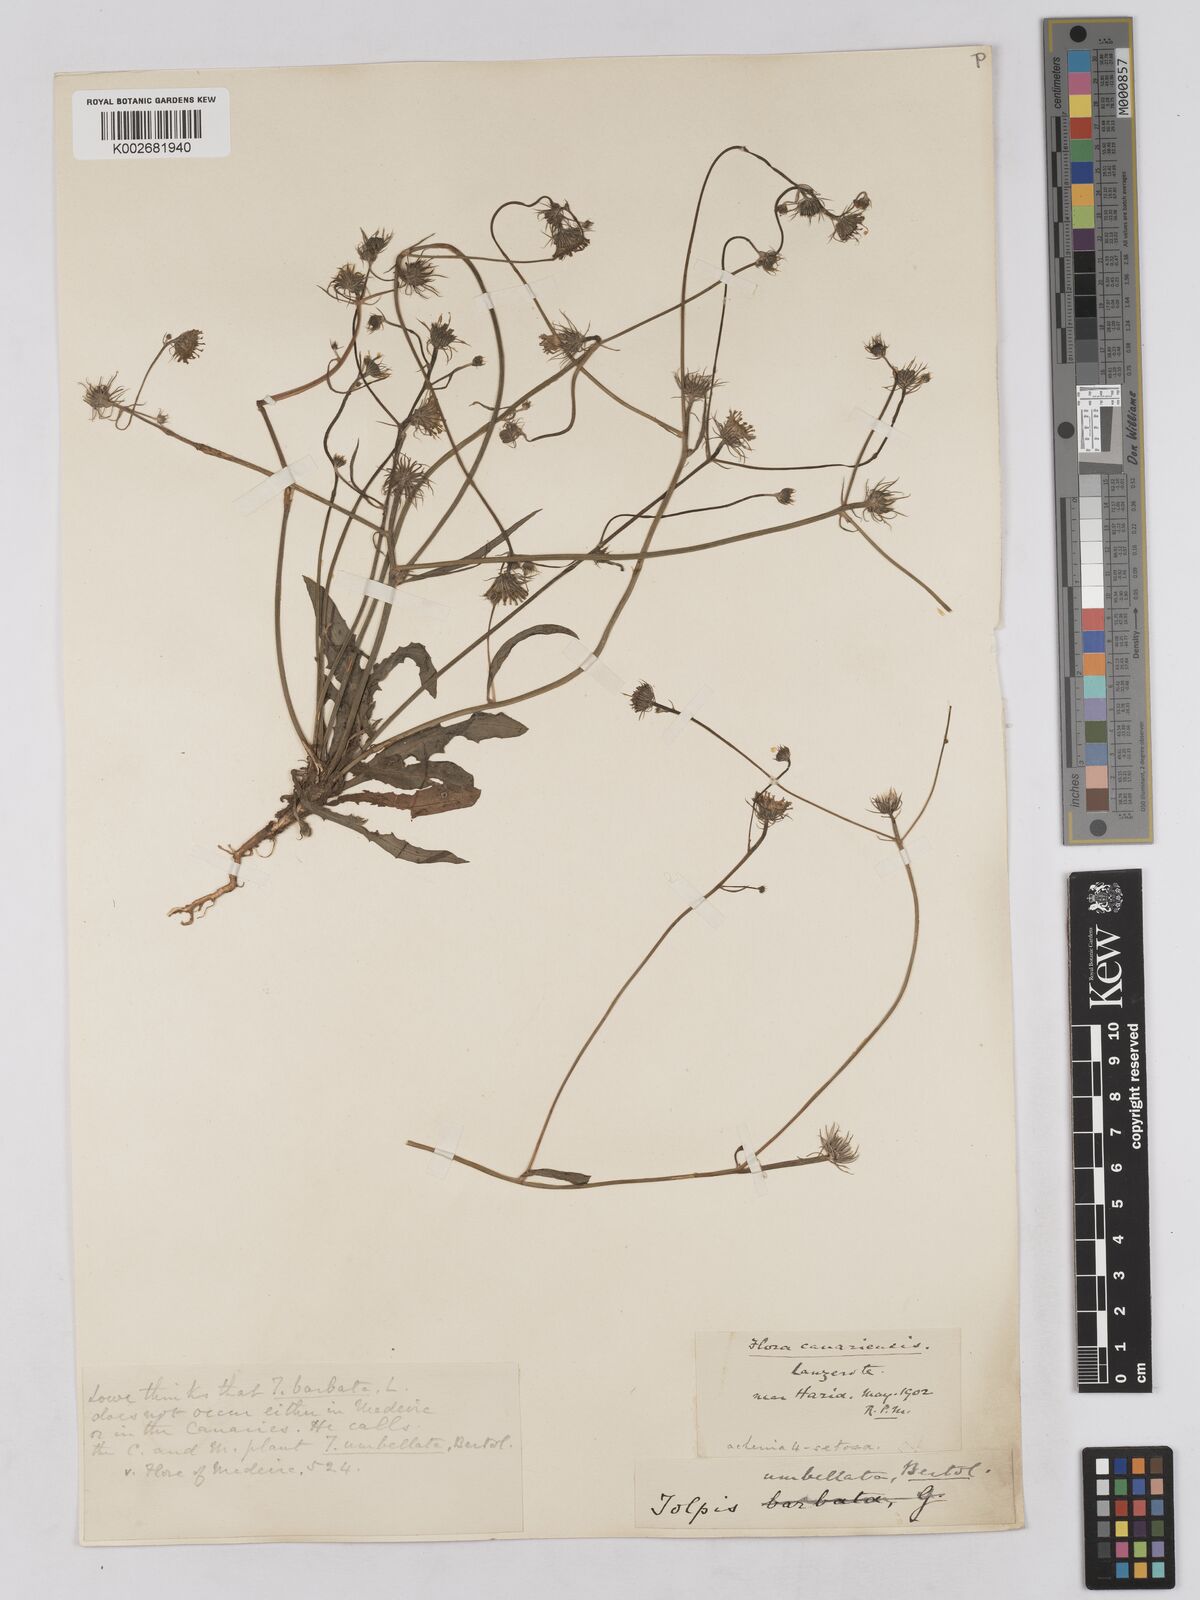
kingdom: Plantae
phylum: Tracheophyta
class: Magnoliopsida
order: Asterales
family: Asteraceae
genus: Tolpis
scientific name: Tolpis umbellata
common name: Yellow hawkweed
